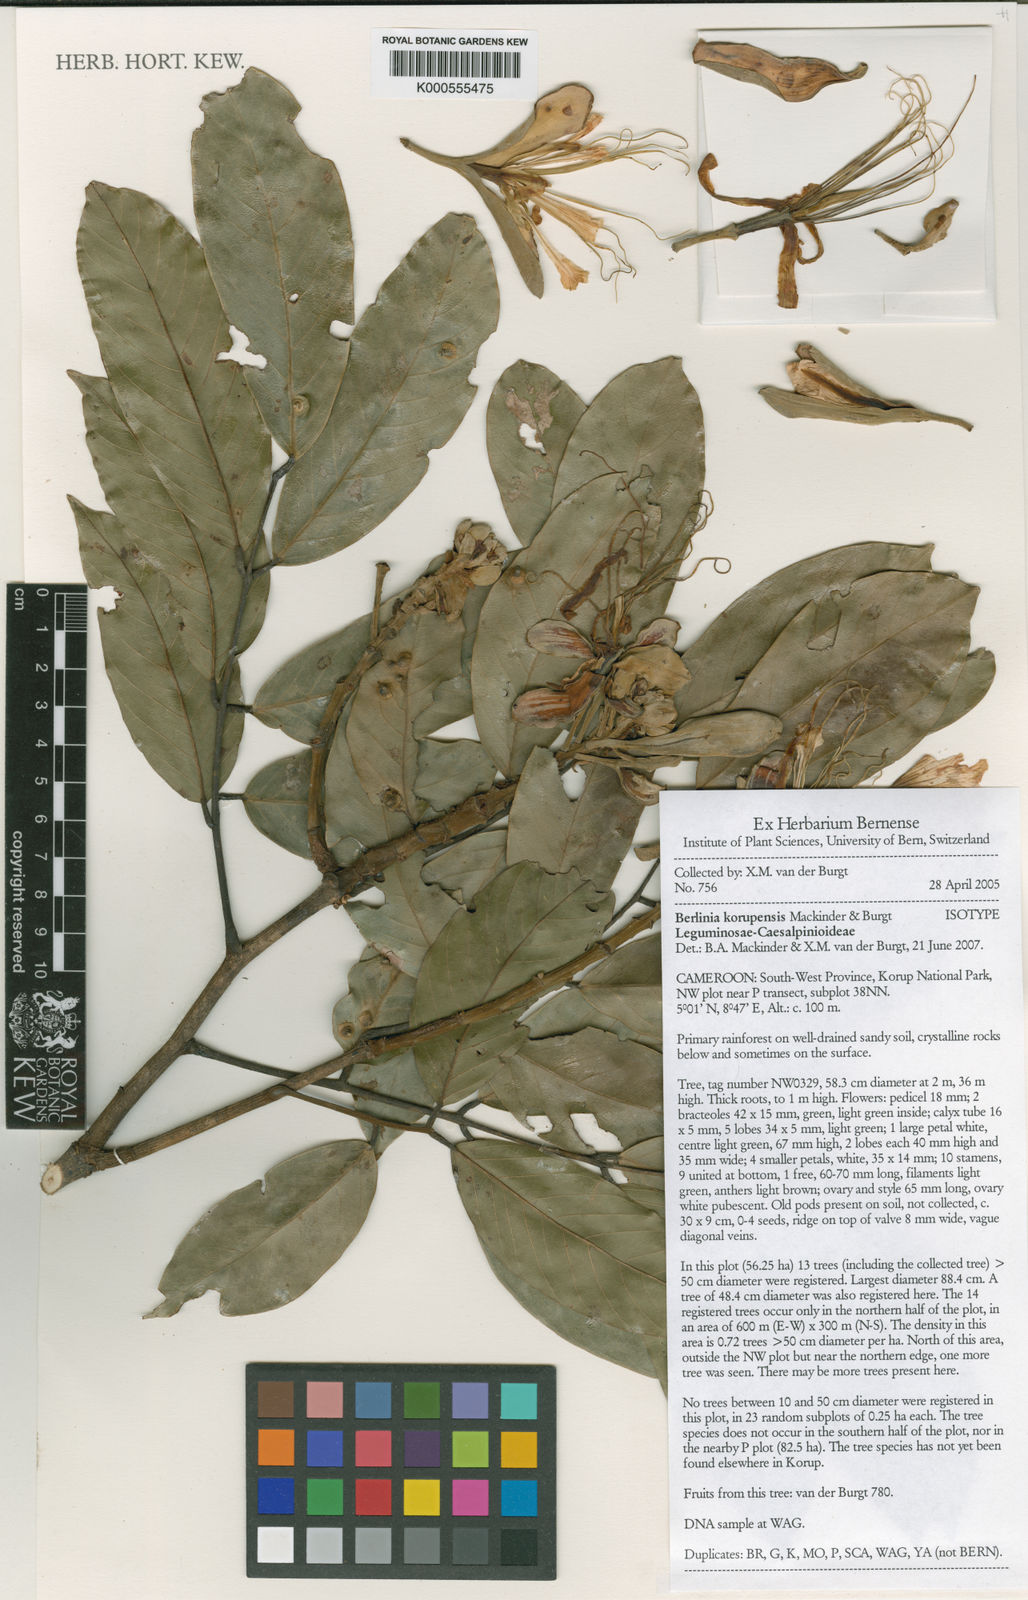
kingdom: Plantae
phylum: Tracheophyta
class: Magnoliopsida
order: Fabales
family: Fabaceae
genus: Berlinia
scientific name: Berlinia korupensis
